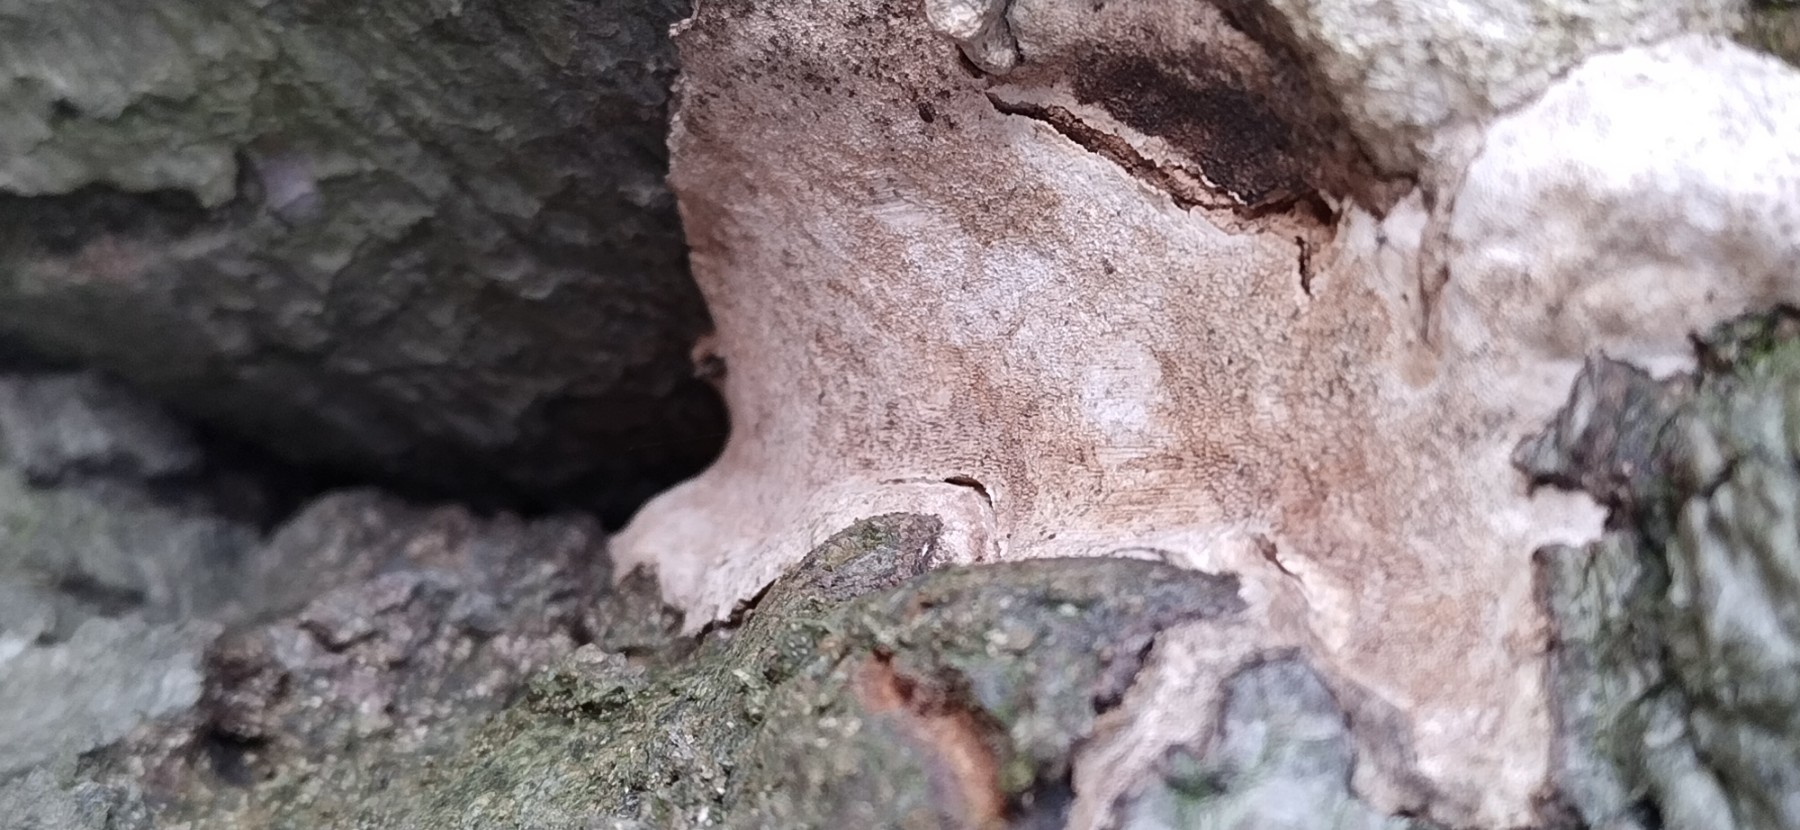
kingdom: Fungi
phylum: Basidiomycota
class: Agaricomycetes
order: Polyporales
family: Polyporaceae
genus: Vanderbylia
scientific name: Vanderbylia fraxinea
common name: stor kanelporesvamp
